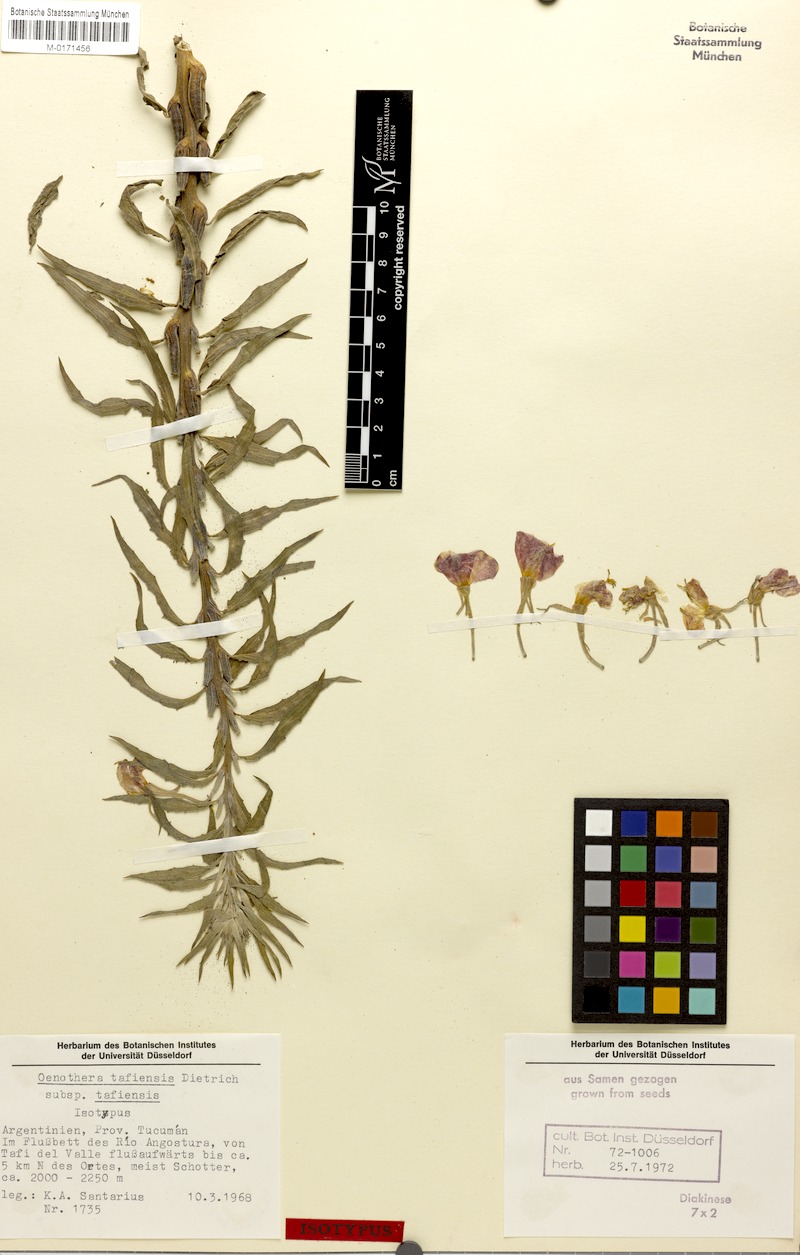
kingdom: Plantae
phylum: Tracheophyta
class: Magnoliopsida
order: Myrtales
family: Onagraceae
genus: Oenothera
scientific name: Oenothera tafiensis
